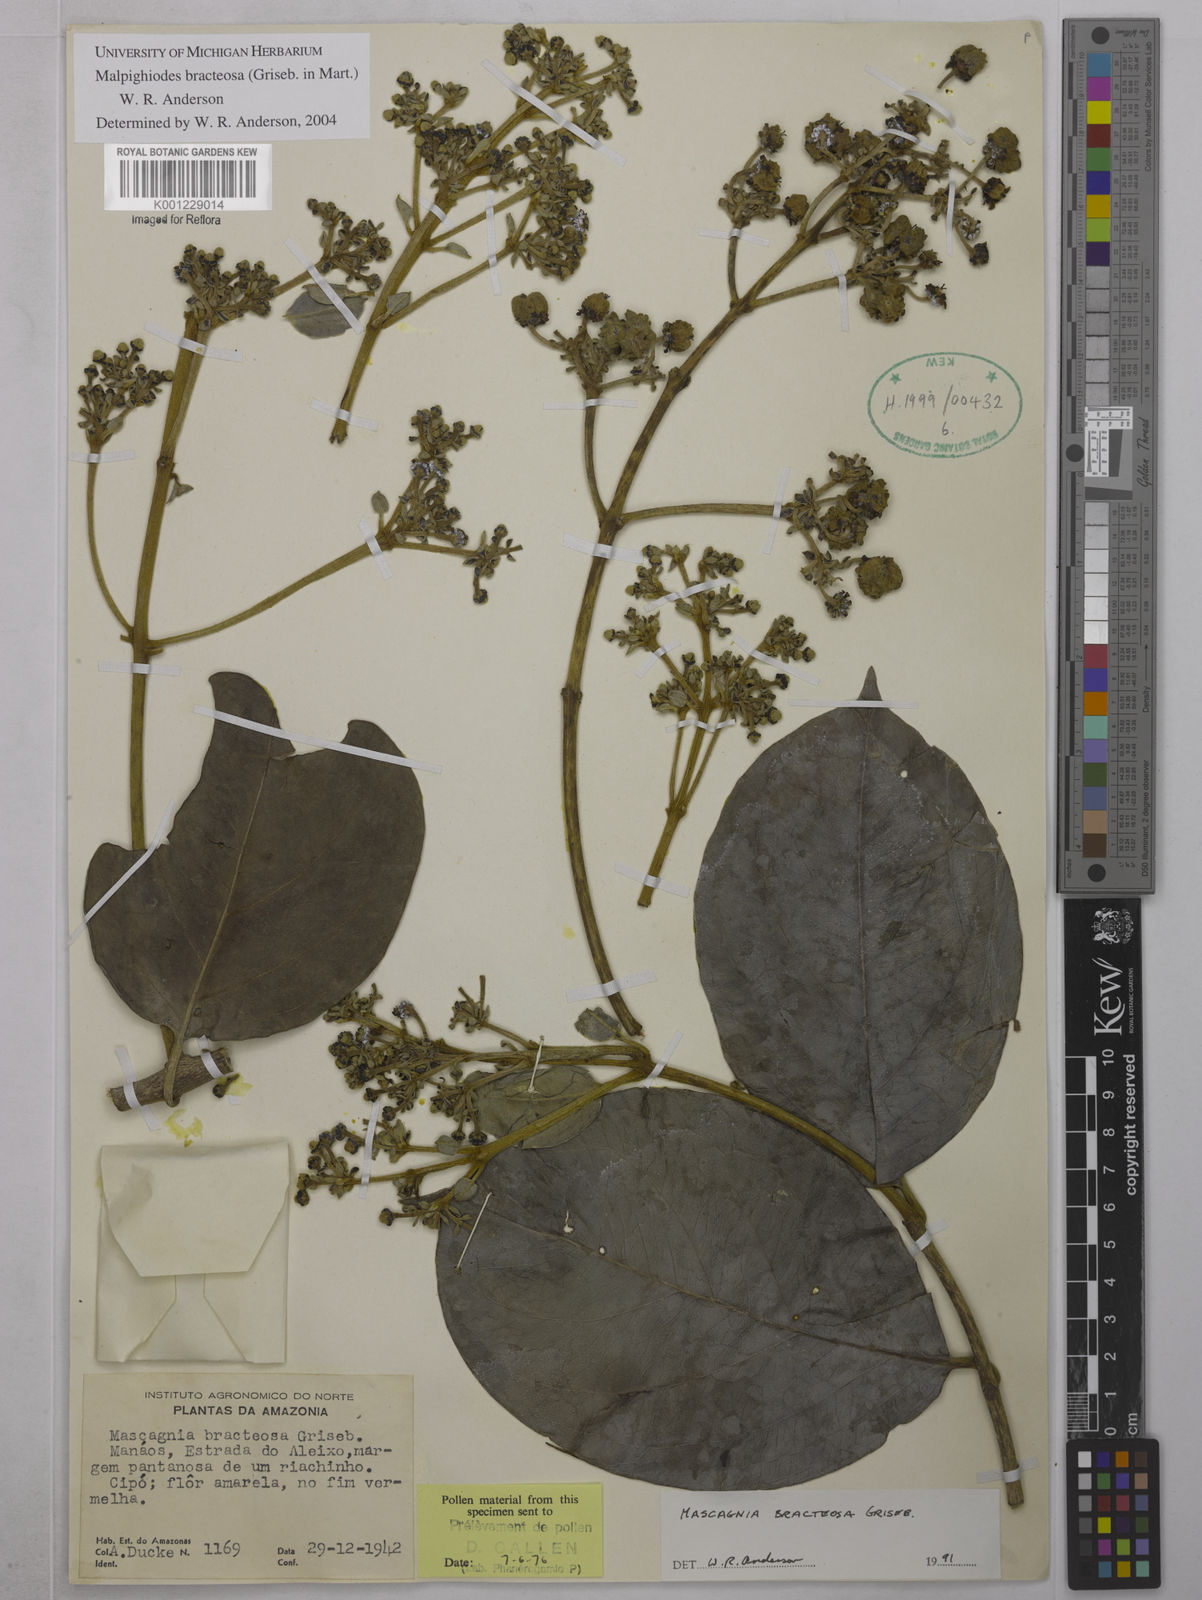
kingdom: Plantae
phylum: Tracheophyta
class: Magnoliopsida
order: Malpighiales
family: Malpighiaceae
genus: Malpighiodes
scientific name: Malpighiodes bracteosa
